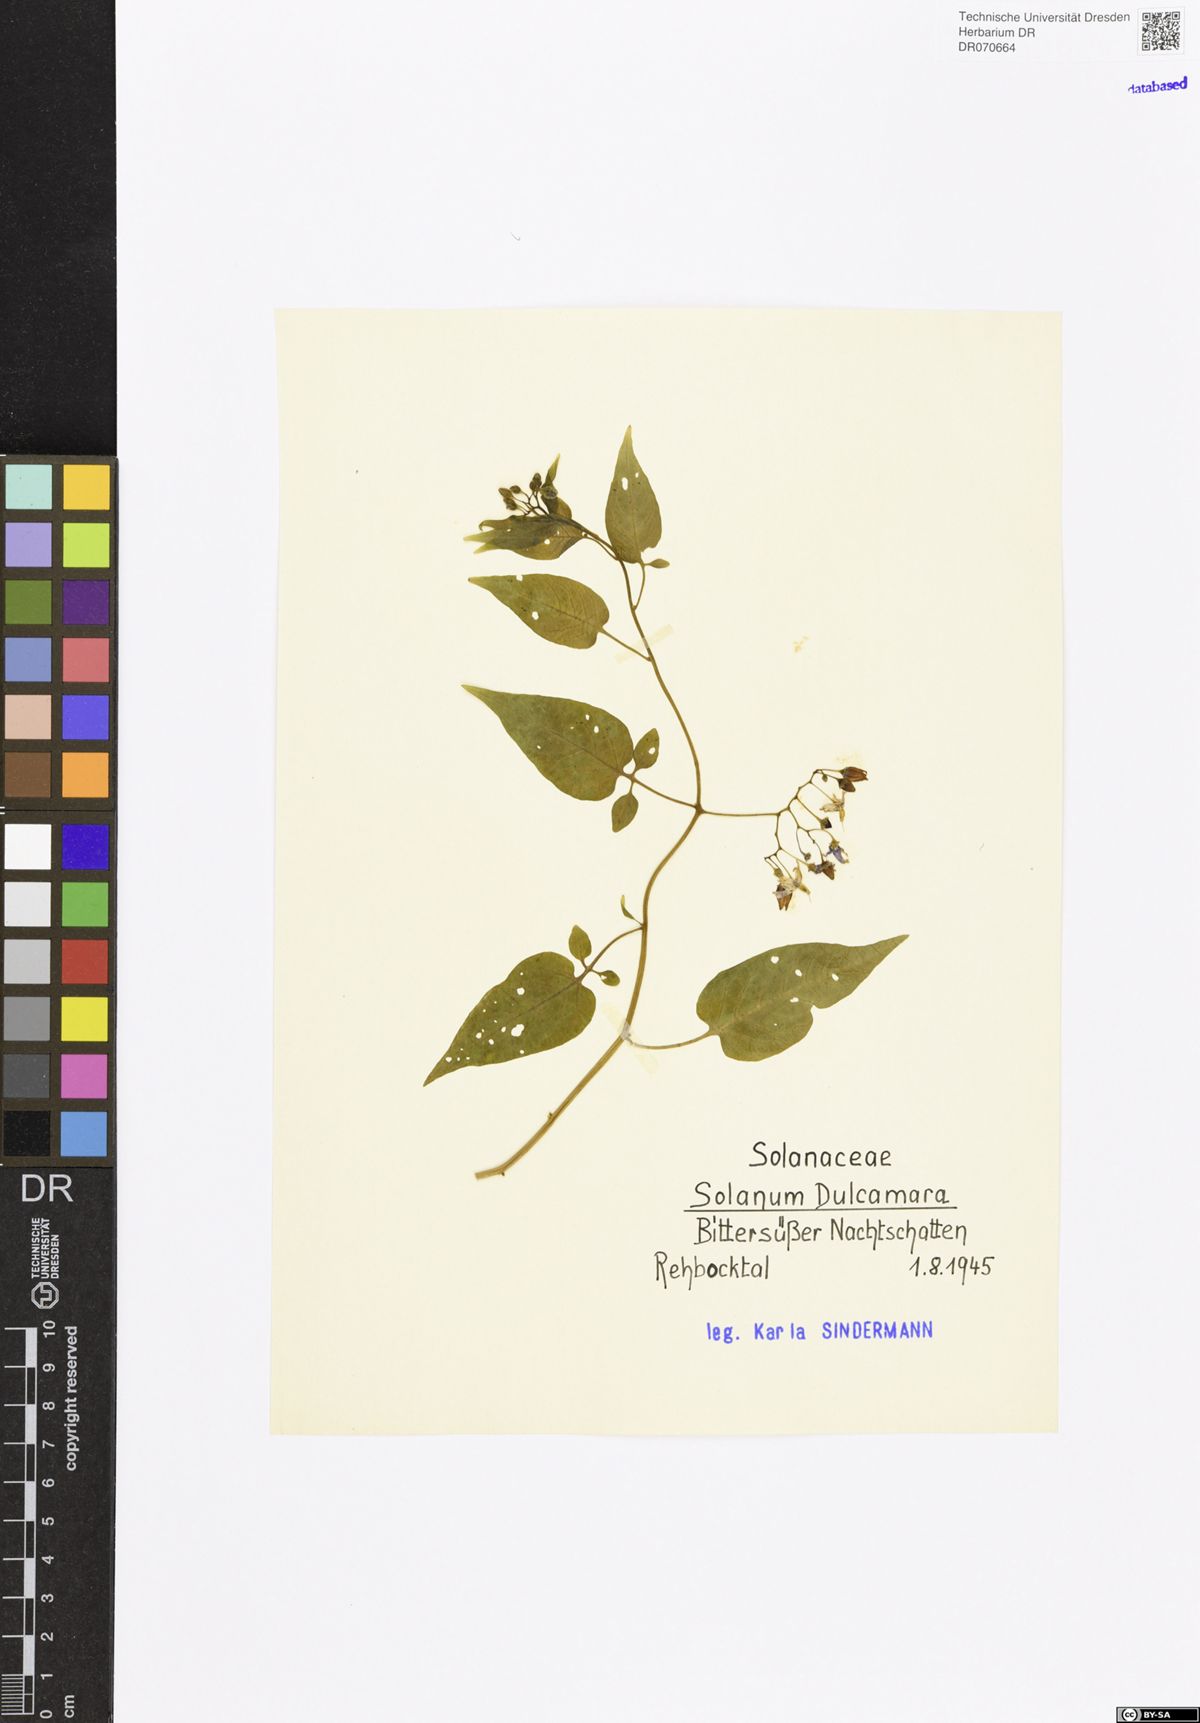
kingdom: Plantae
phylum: Tracheophyta
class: Magnoliopsida
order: Solanales
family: Solanaceae
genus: Solanum
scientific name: Solanum dulcamara
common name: Climbing nightshade
